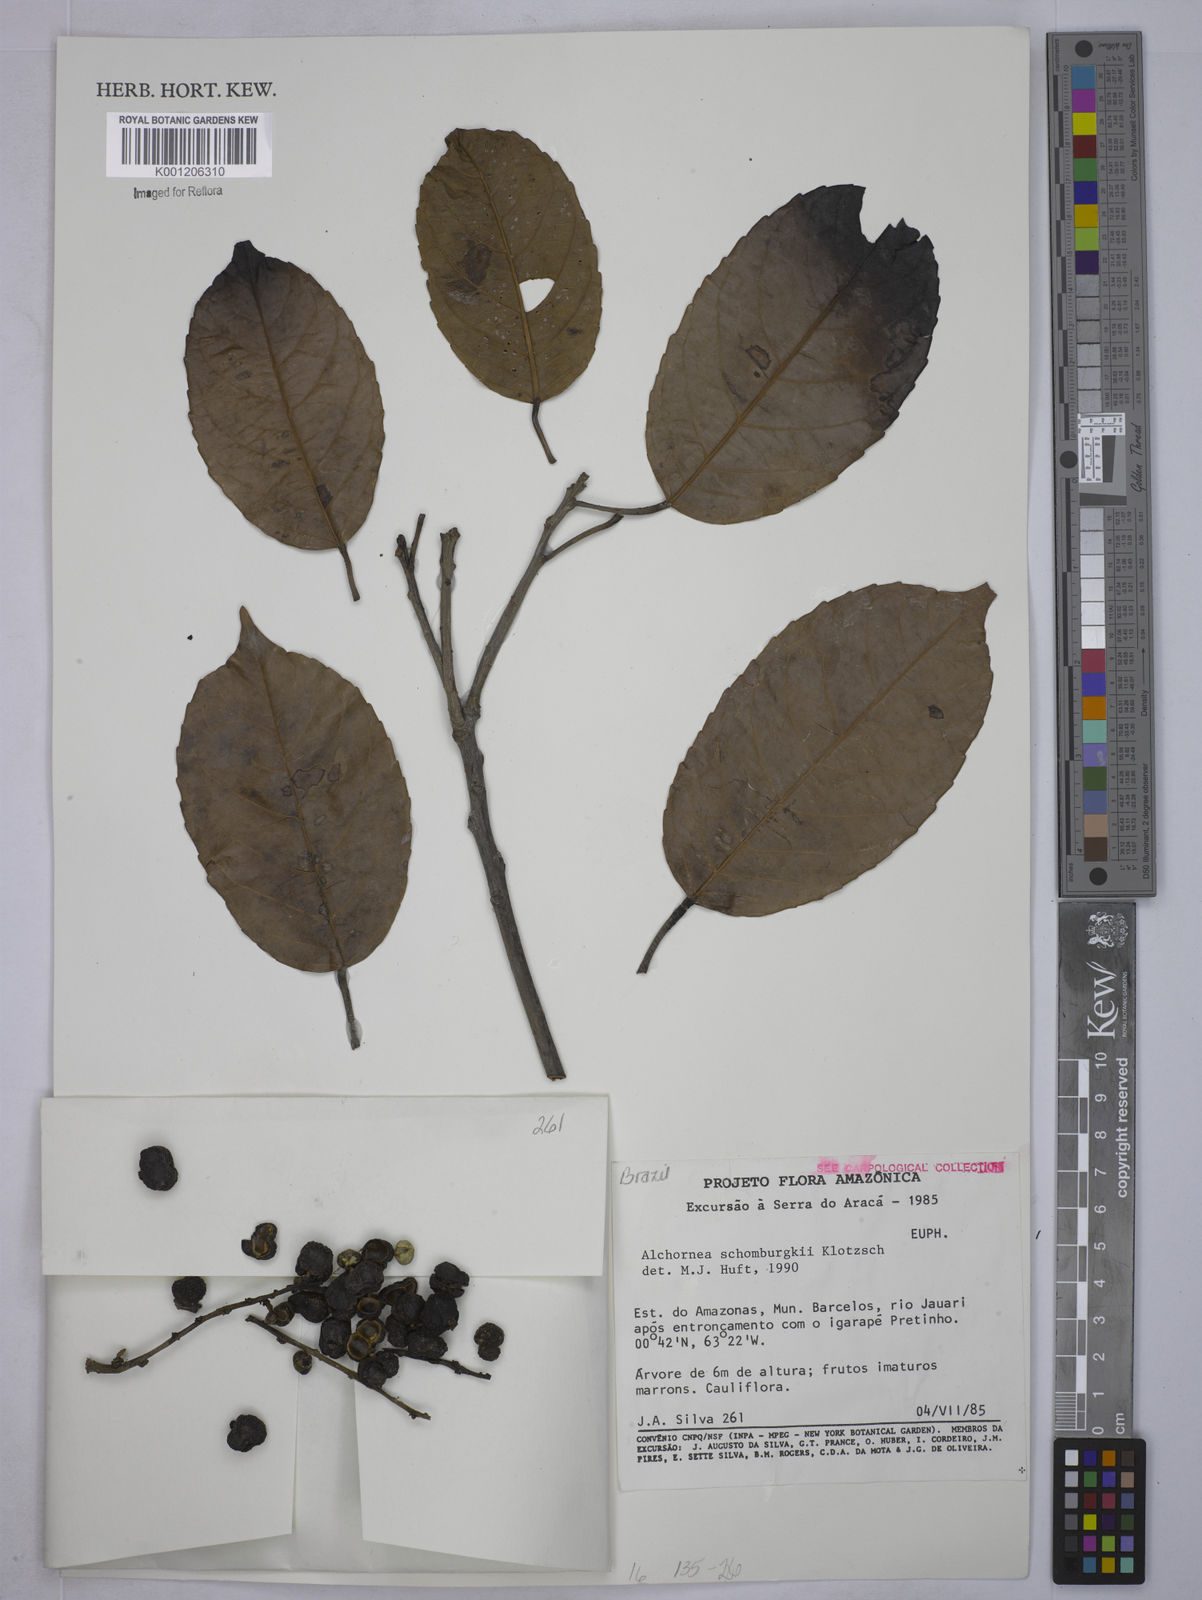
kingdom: Plantae
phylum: Tracheophyta
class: Magnoliopsida
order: Malpighiales
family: Euphorbiaceae
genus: Alchornea
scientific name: Alchornea discolor
